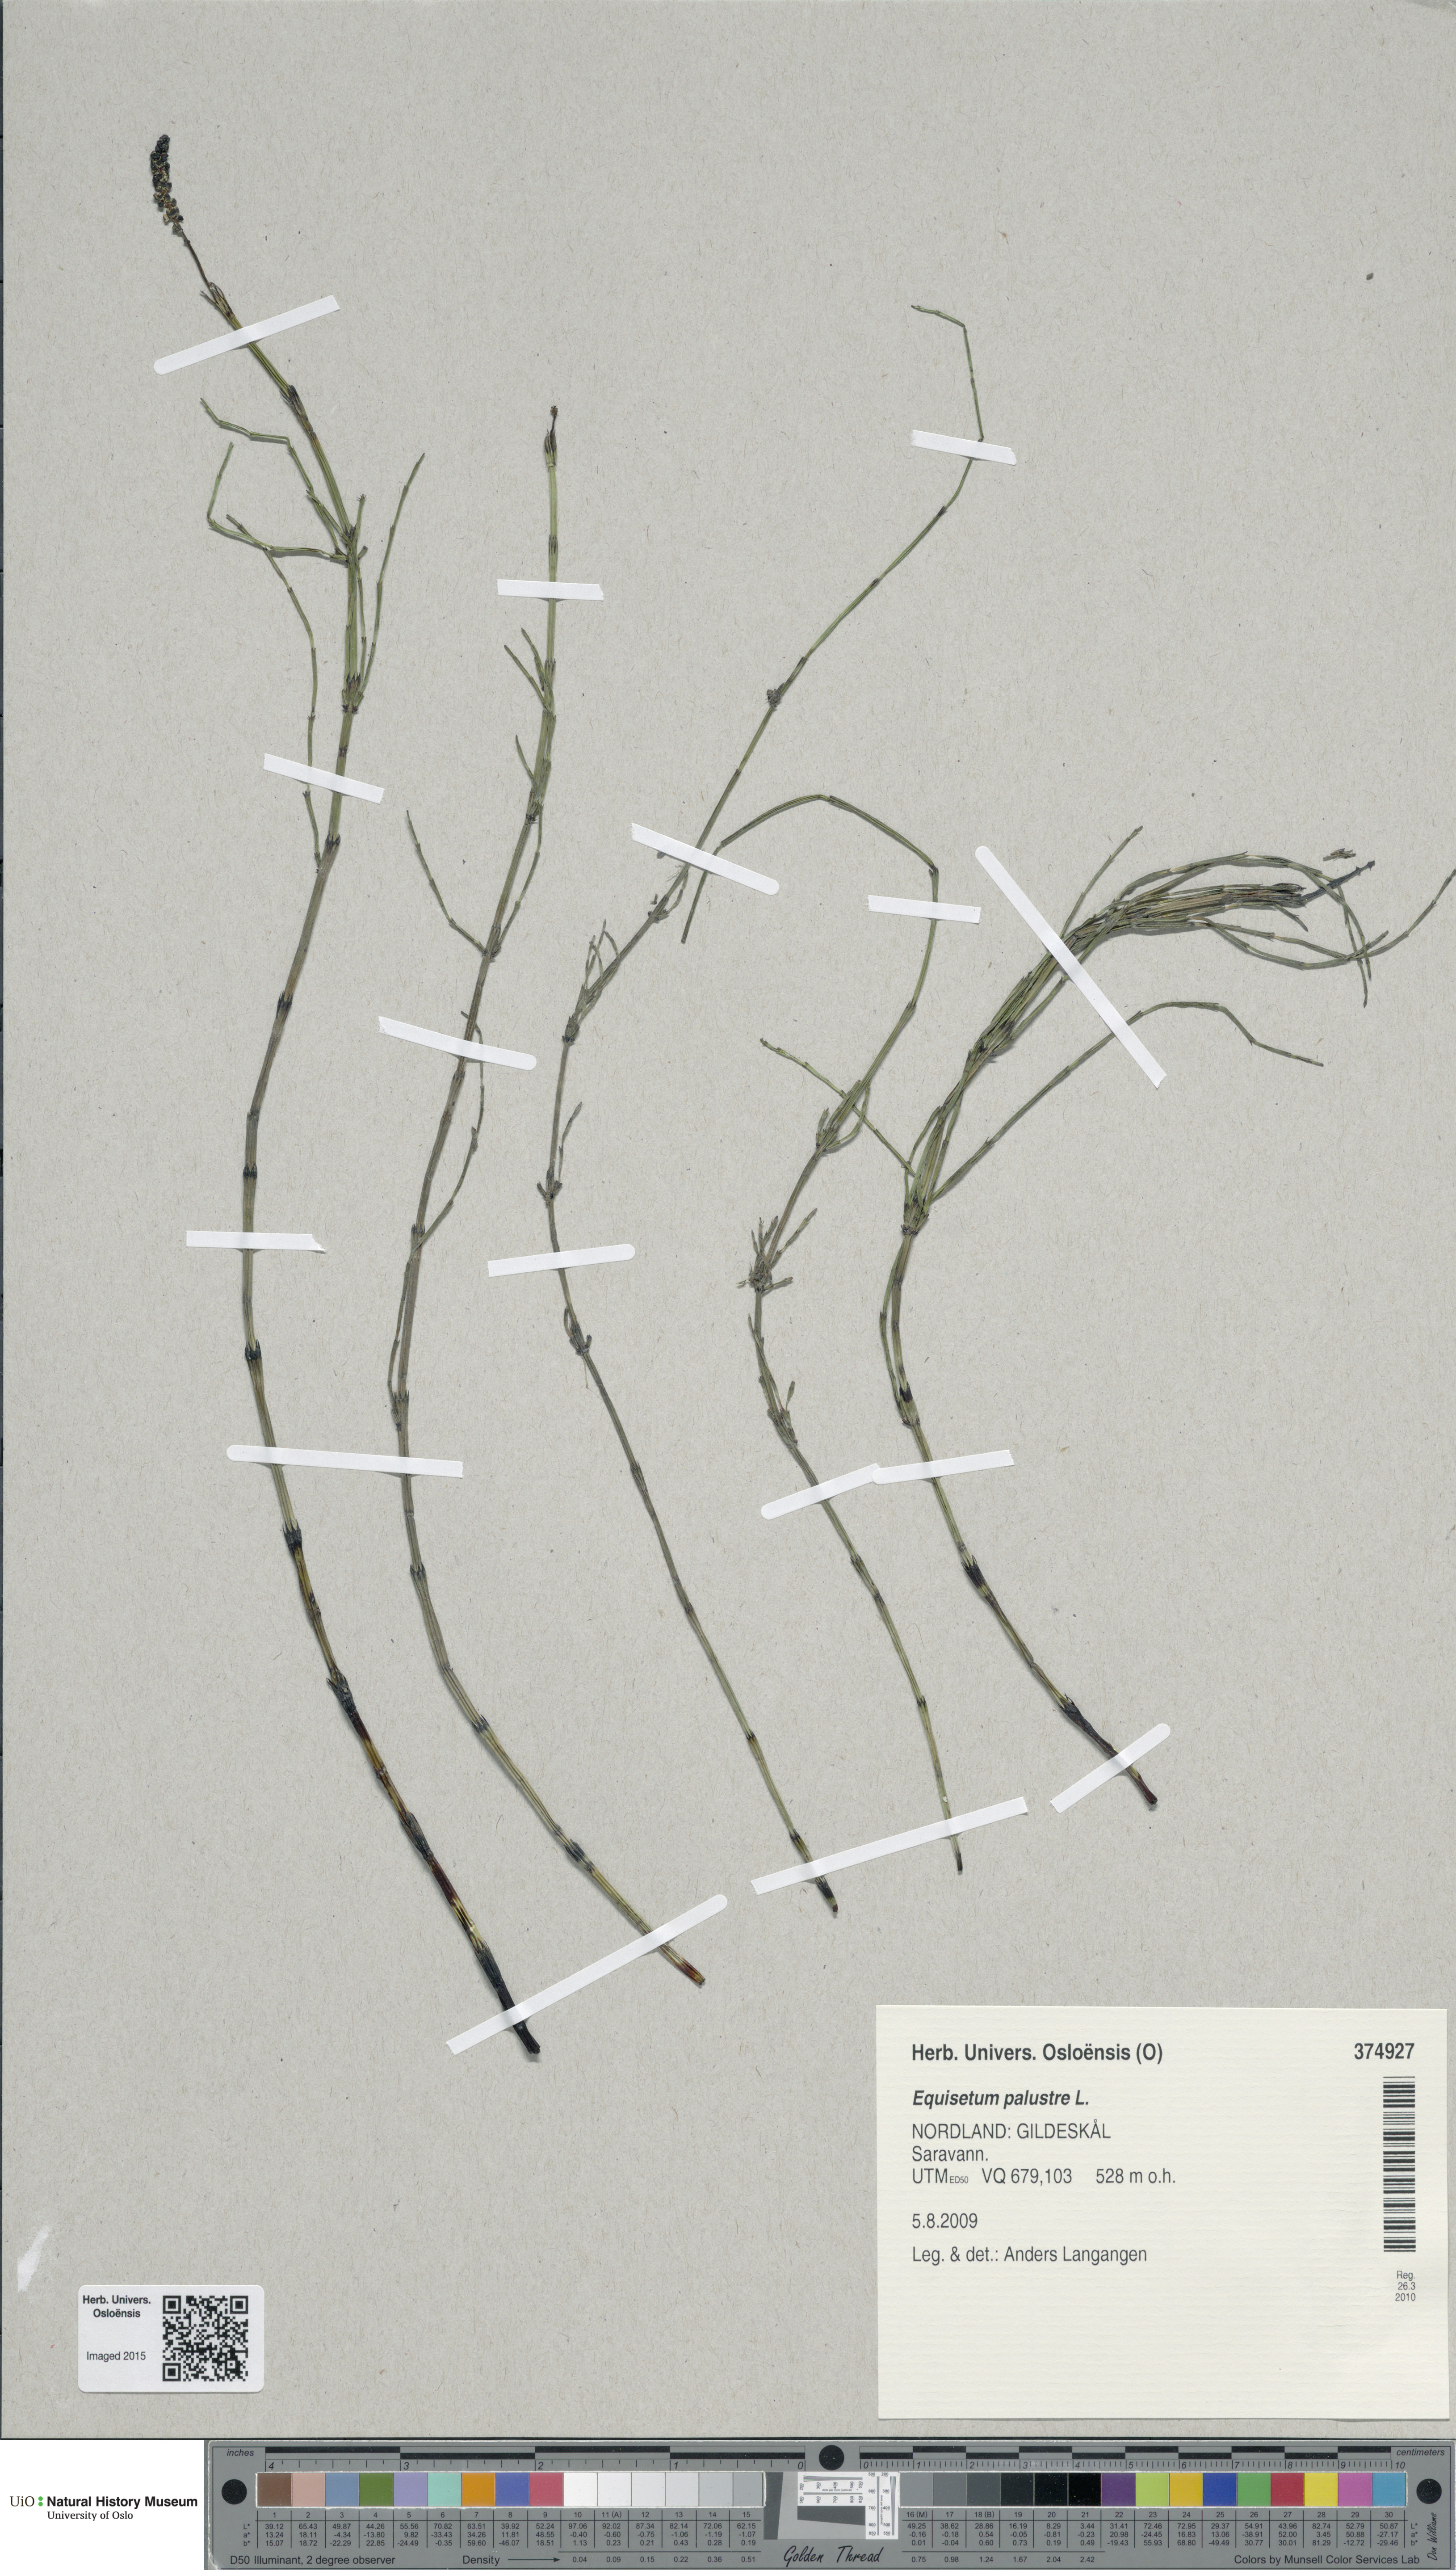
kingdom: Plantae
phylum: Tracheophyta
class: Polypodiopsida
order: Equisetales
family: Equisetaceae
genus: Equisetum
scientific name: Equisetum palustre
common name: Marsh horsetail
